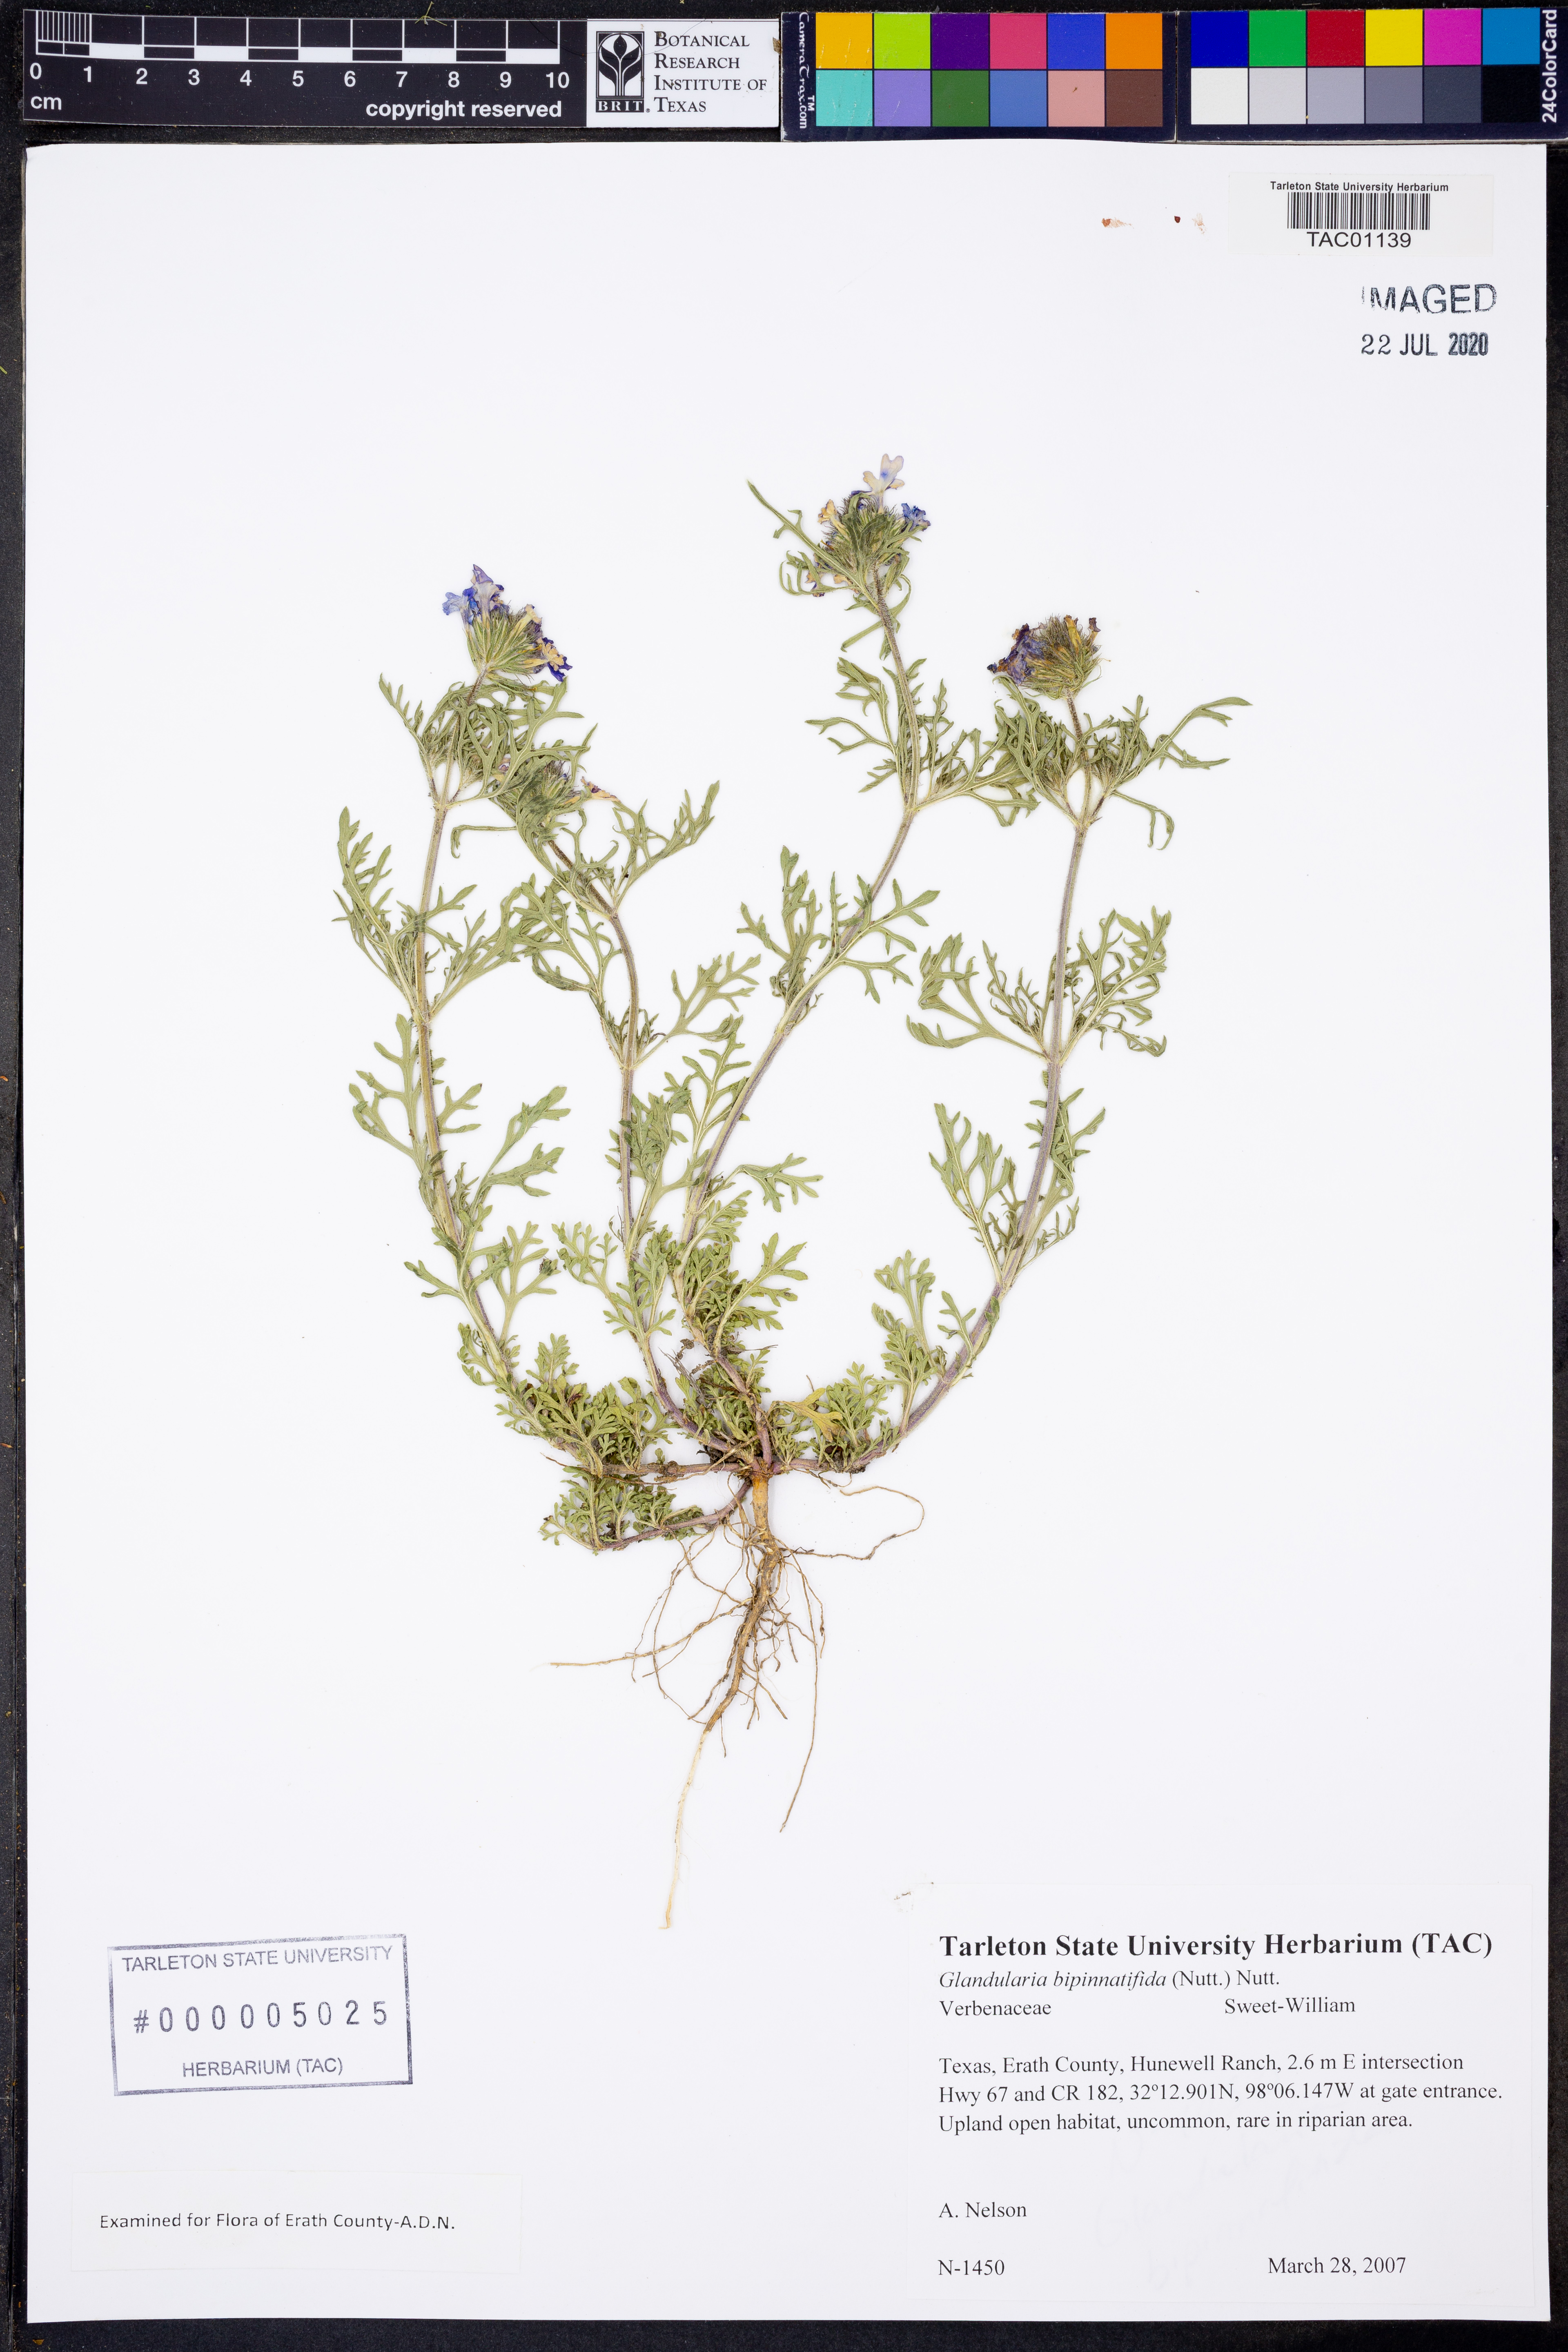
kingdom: Plantae
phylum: Tracheophyta
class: Magnoliopsida
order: Lamiales
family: Verbenaceae
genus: Verbena
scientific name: Verbena bipinnatifida
